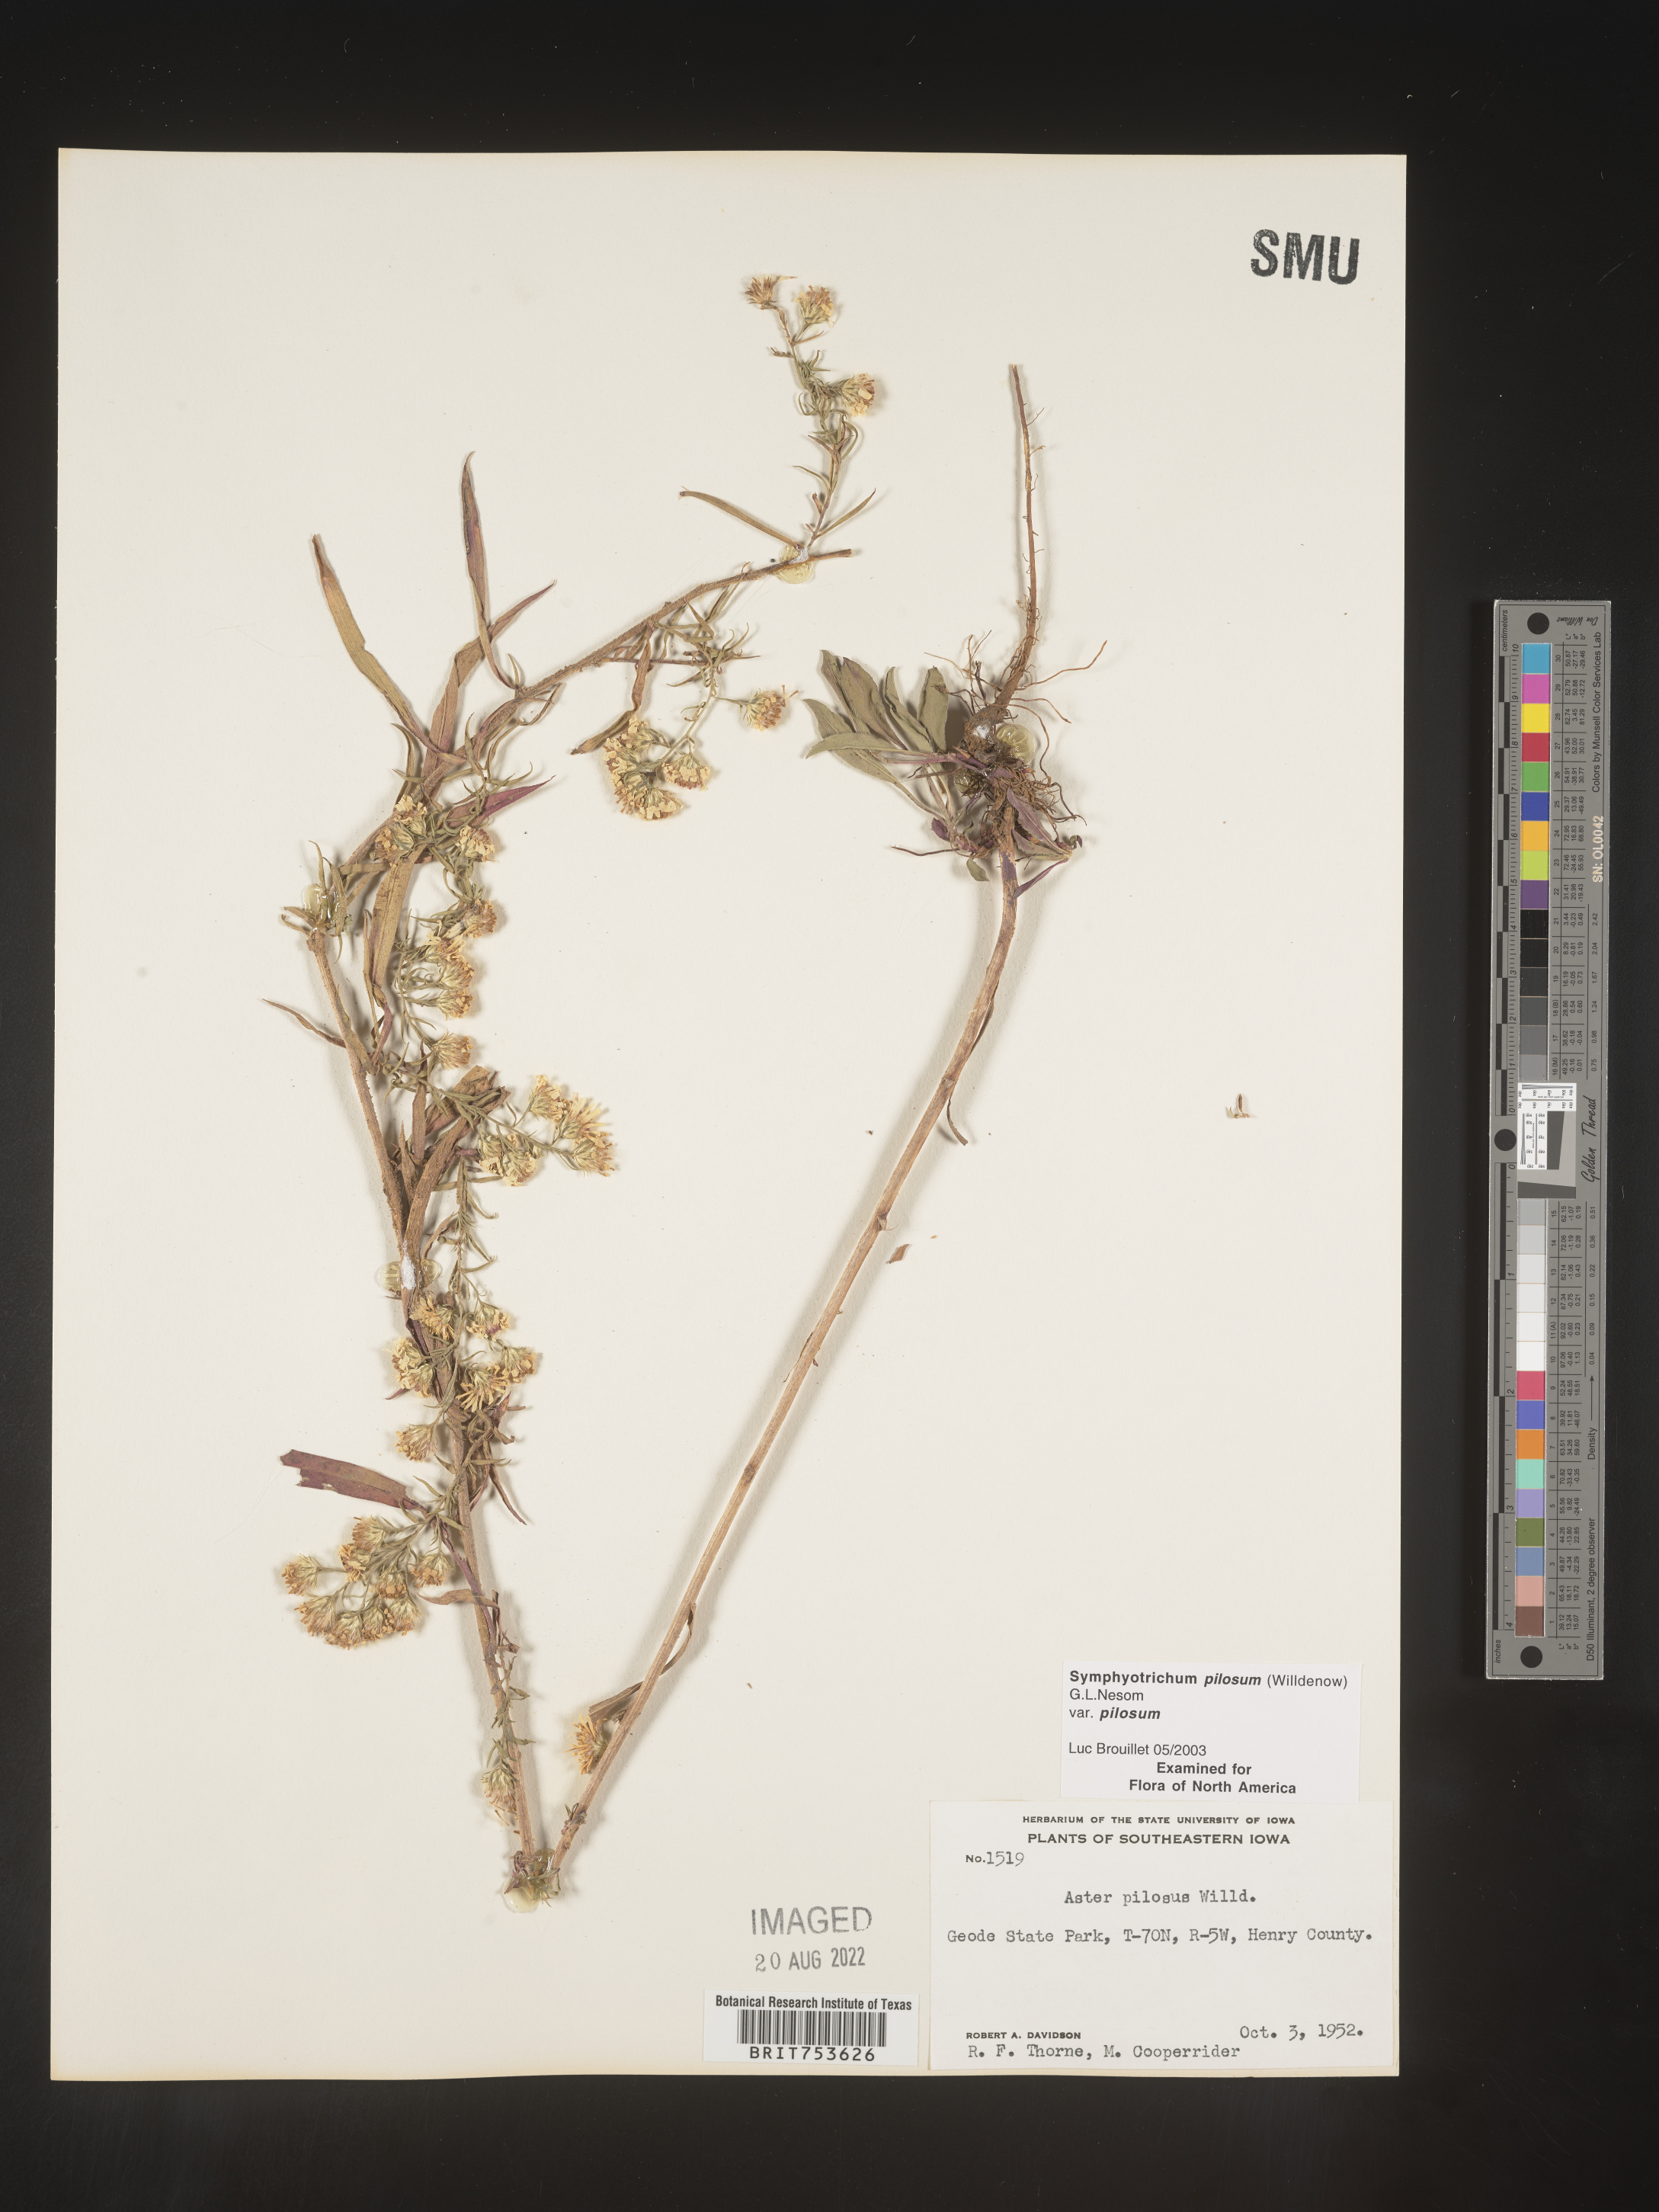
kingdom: Plantae
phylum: Tracheophyta
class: Magnoliopsida
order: Asterales
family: Asteraceae
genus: Symphyotrichum
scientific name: Symphyotrichum pilosum
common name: Awl aster
